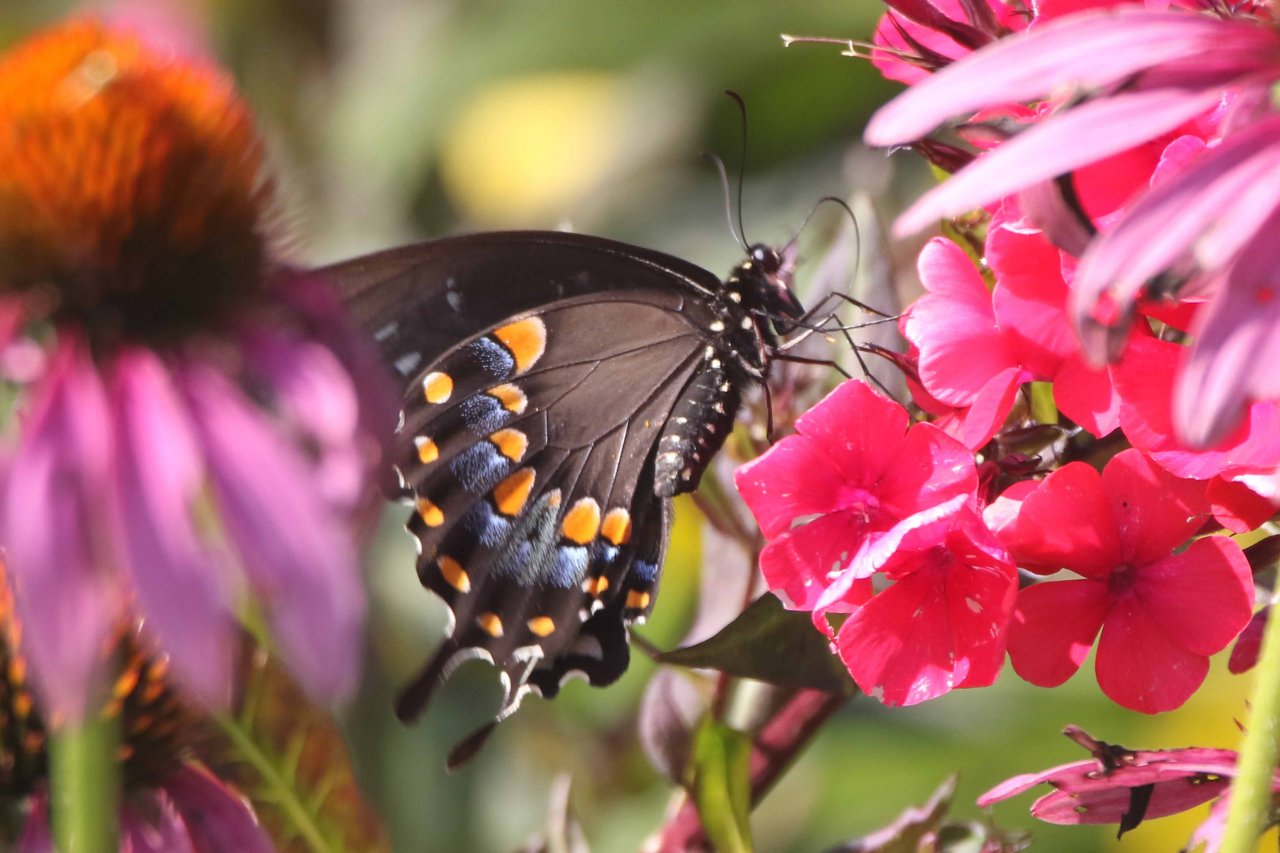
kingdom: Animalia
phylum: Arthropoda
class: Insecta
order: Lepidoptera
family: Papilionidae
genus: Pterourus
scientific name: Pterourus troilus
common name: Spicebush Swallowtail
